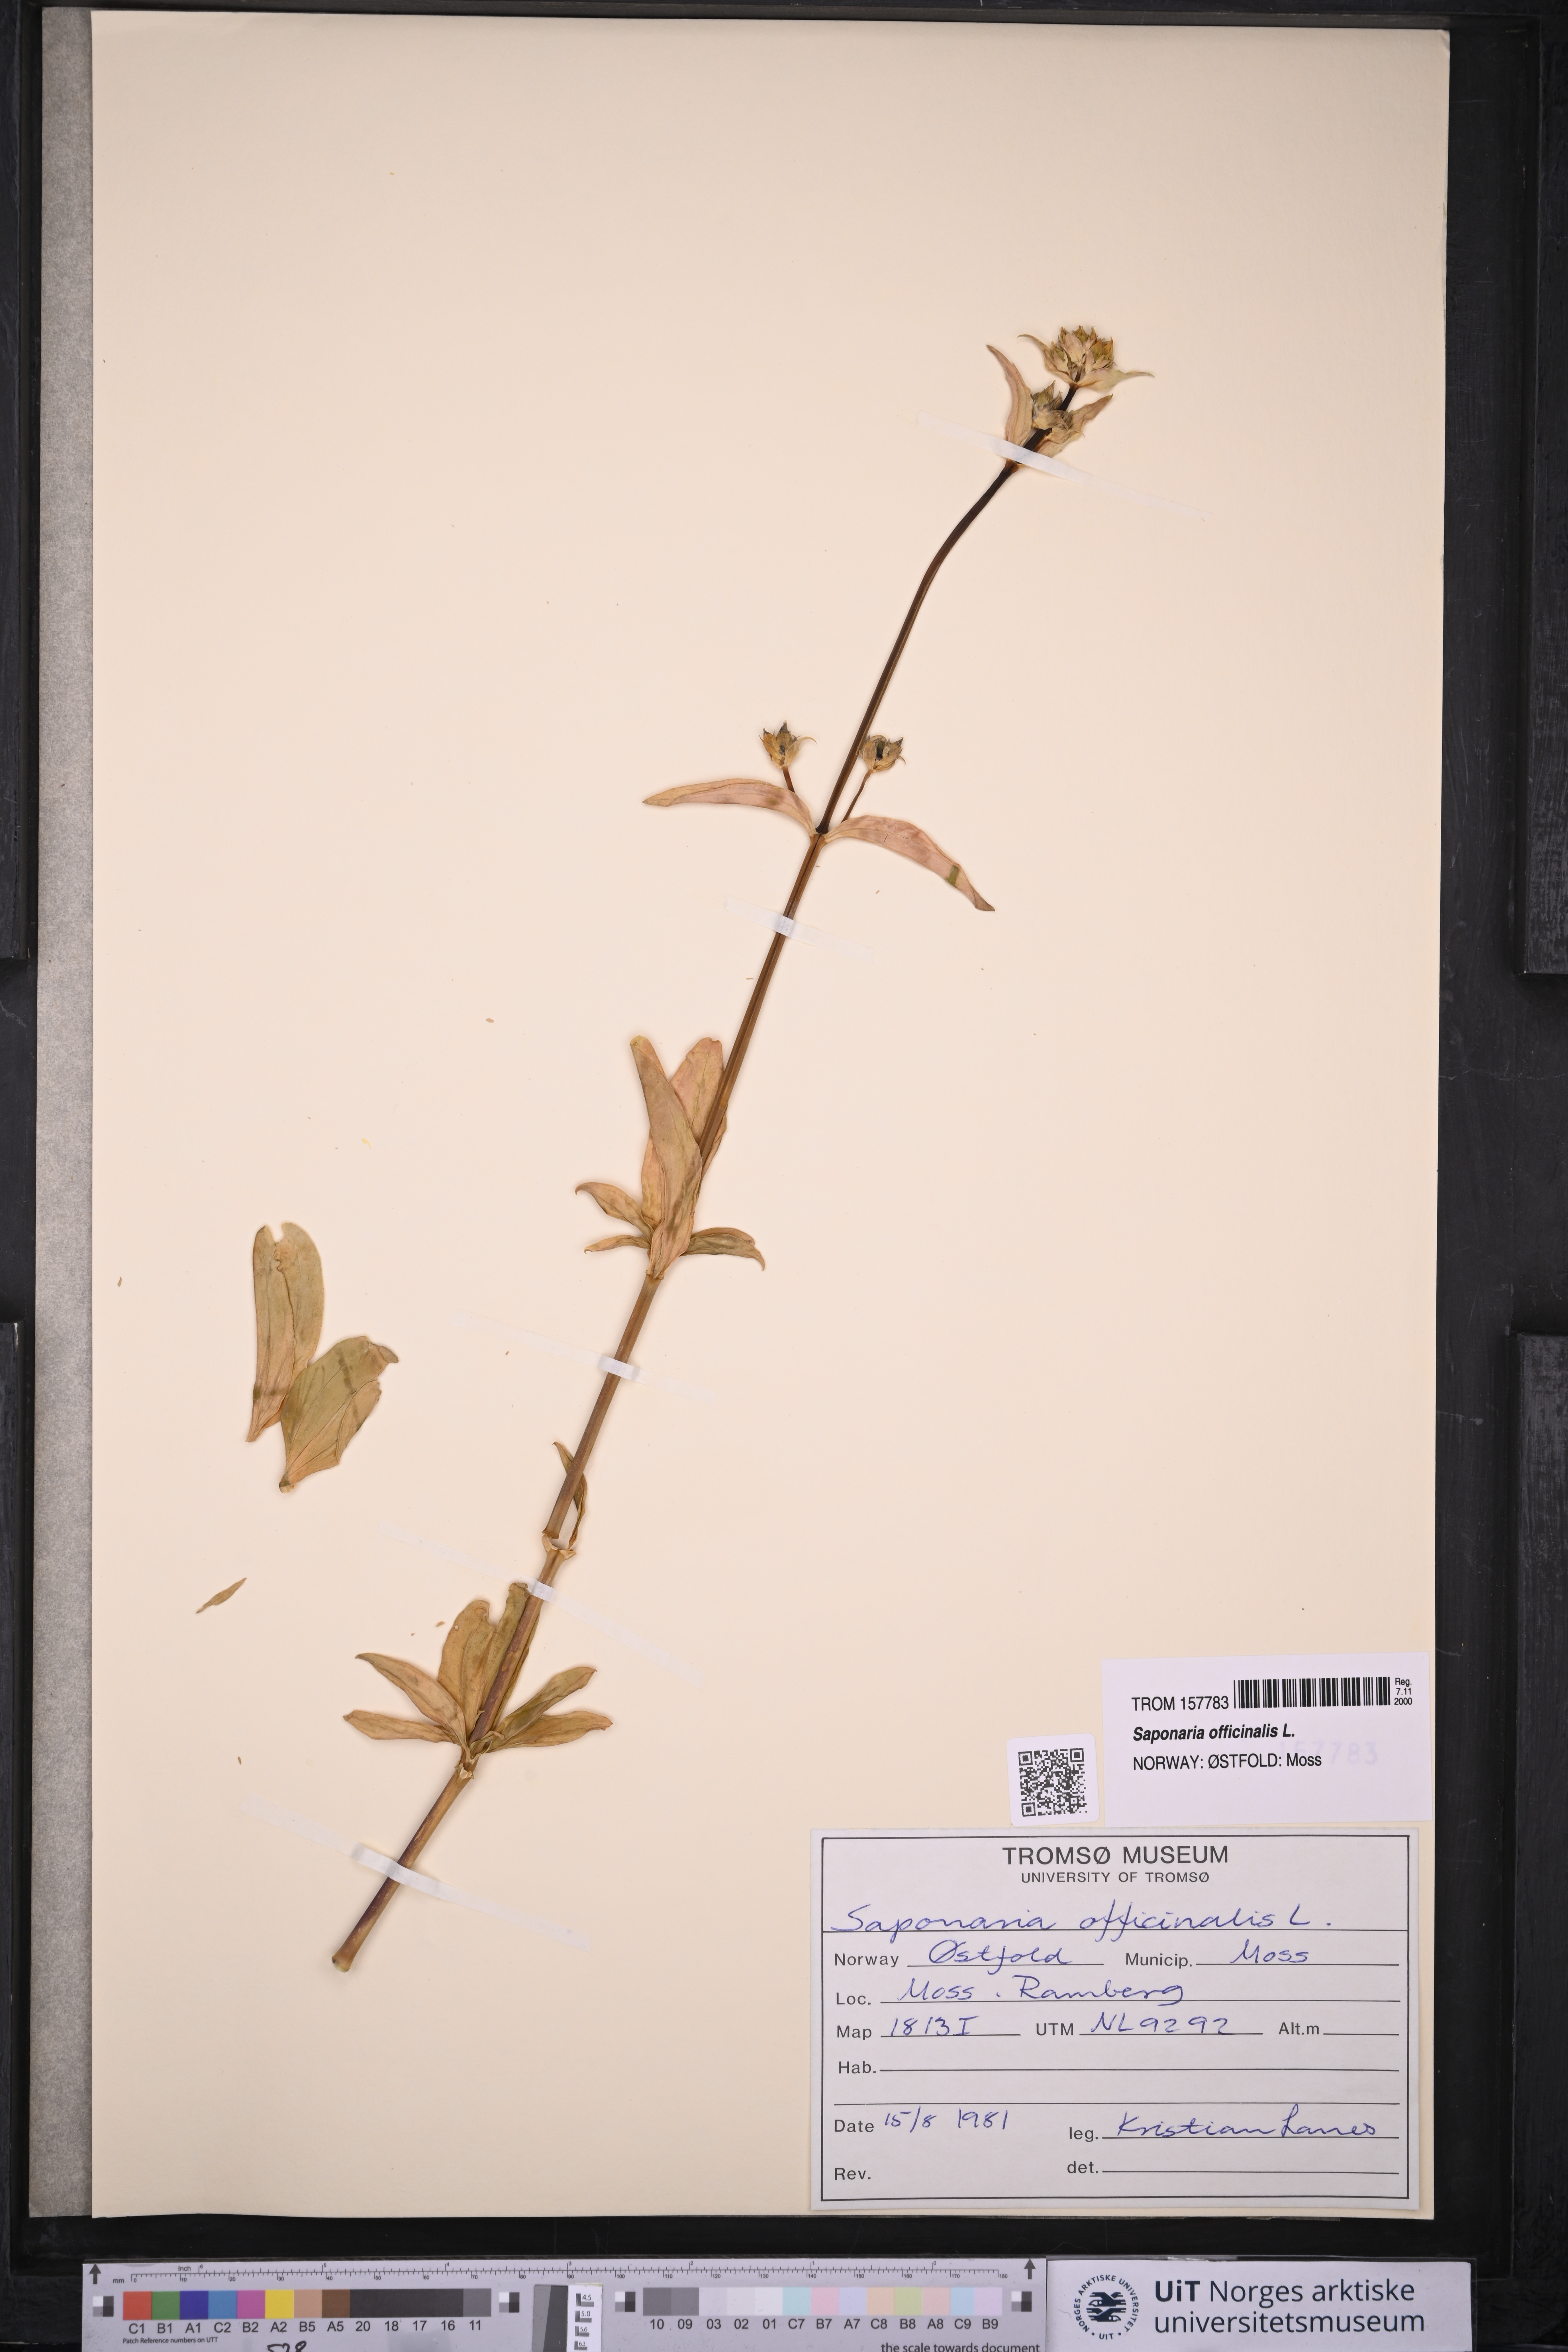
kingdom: Plantae
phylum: Tracheophyta
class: Magnoliopsida
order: Caryophyllales
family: Caryophyllaceae
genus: Saponaria
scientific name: Saponaria officinalis
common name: Soapwort
